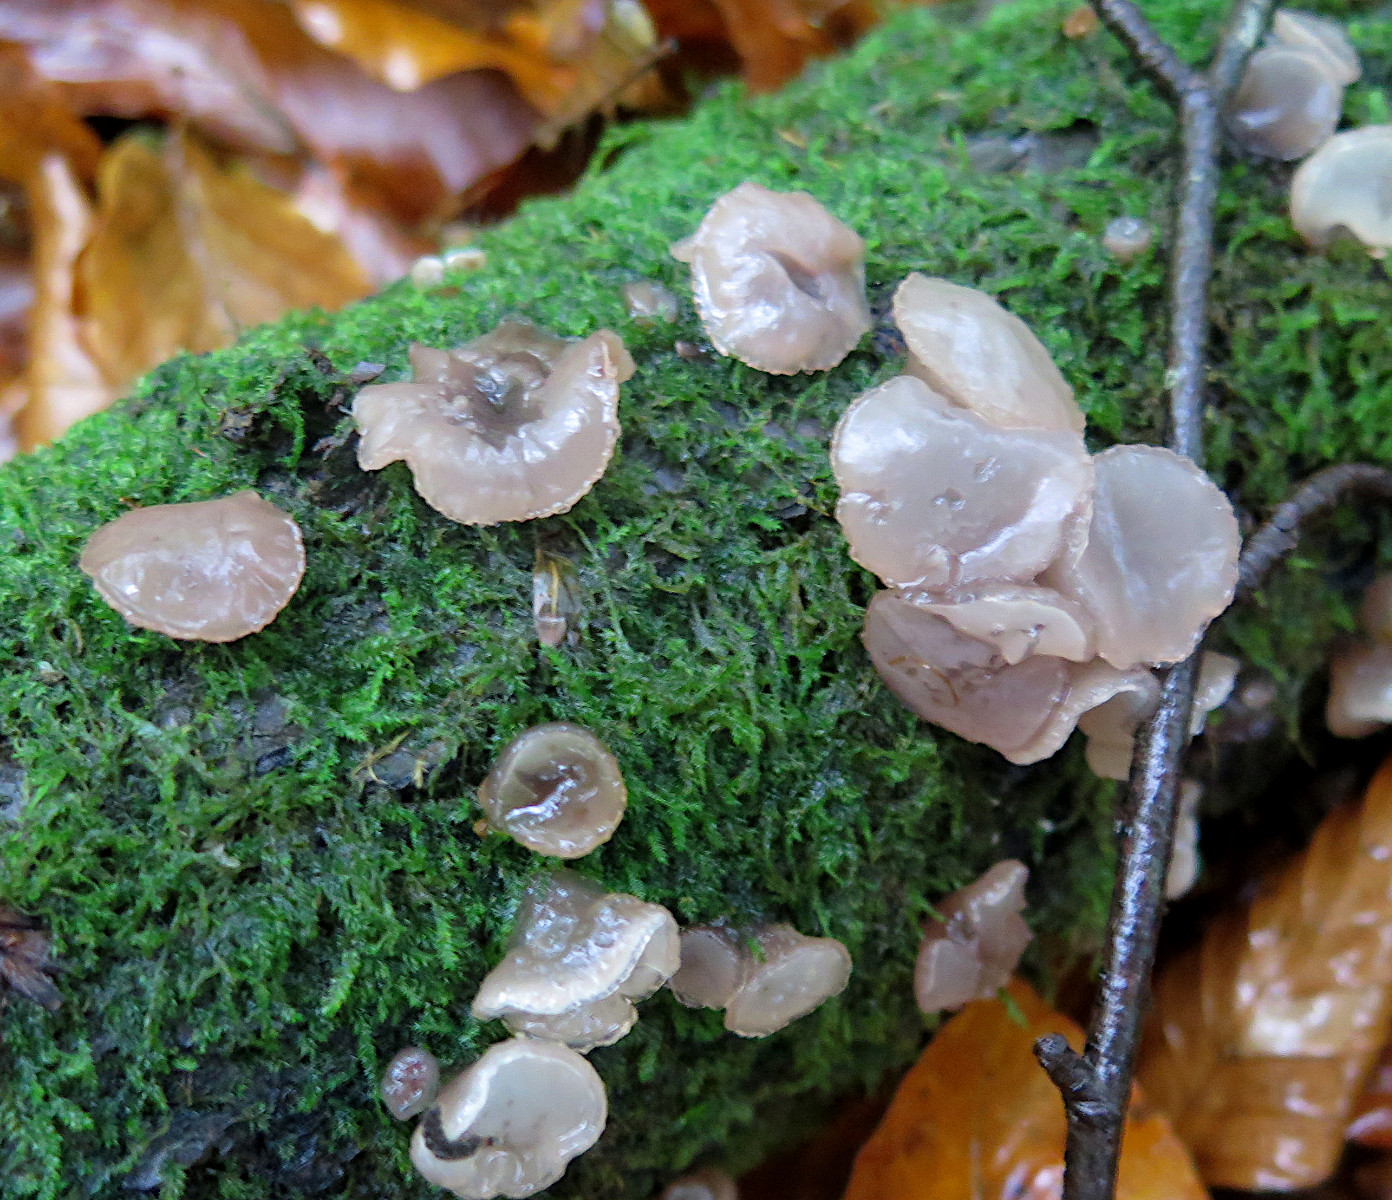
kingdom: Fungi
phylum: Ascomycota
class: Leotiomycetes
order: Helotiales
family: Gelatinodiscaceae
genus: Neobulgaria
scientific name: Neobulgaria pura
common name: bleg bævreskive
